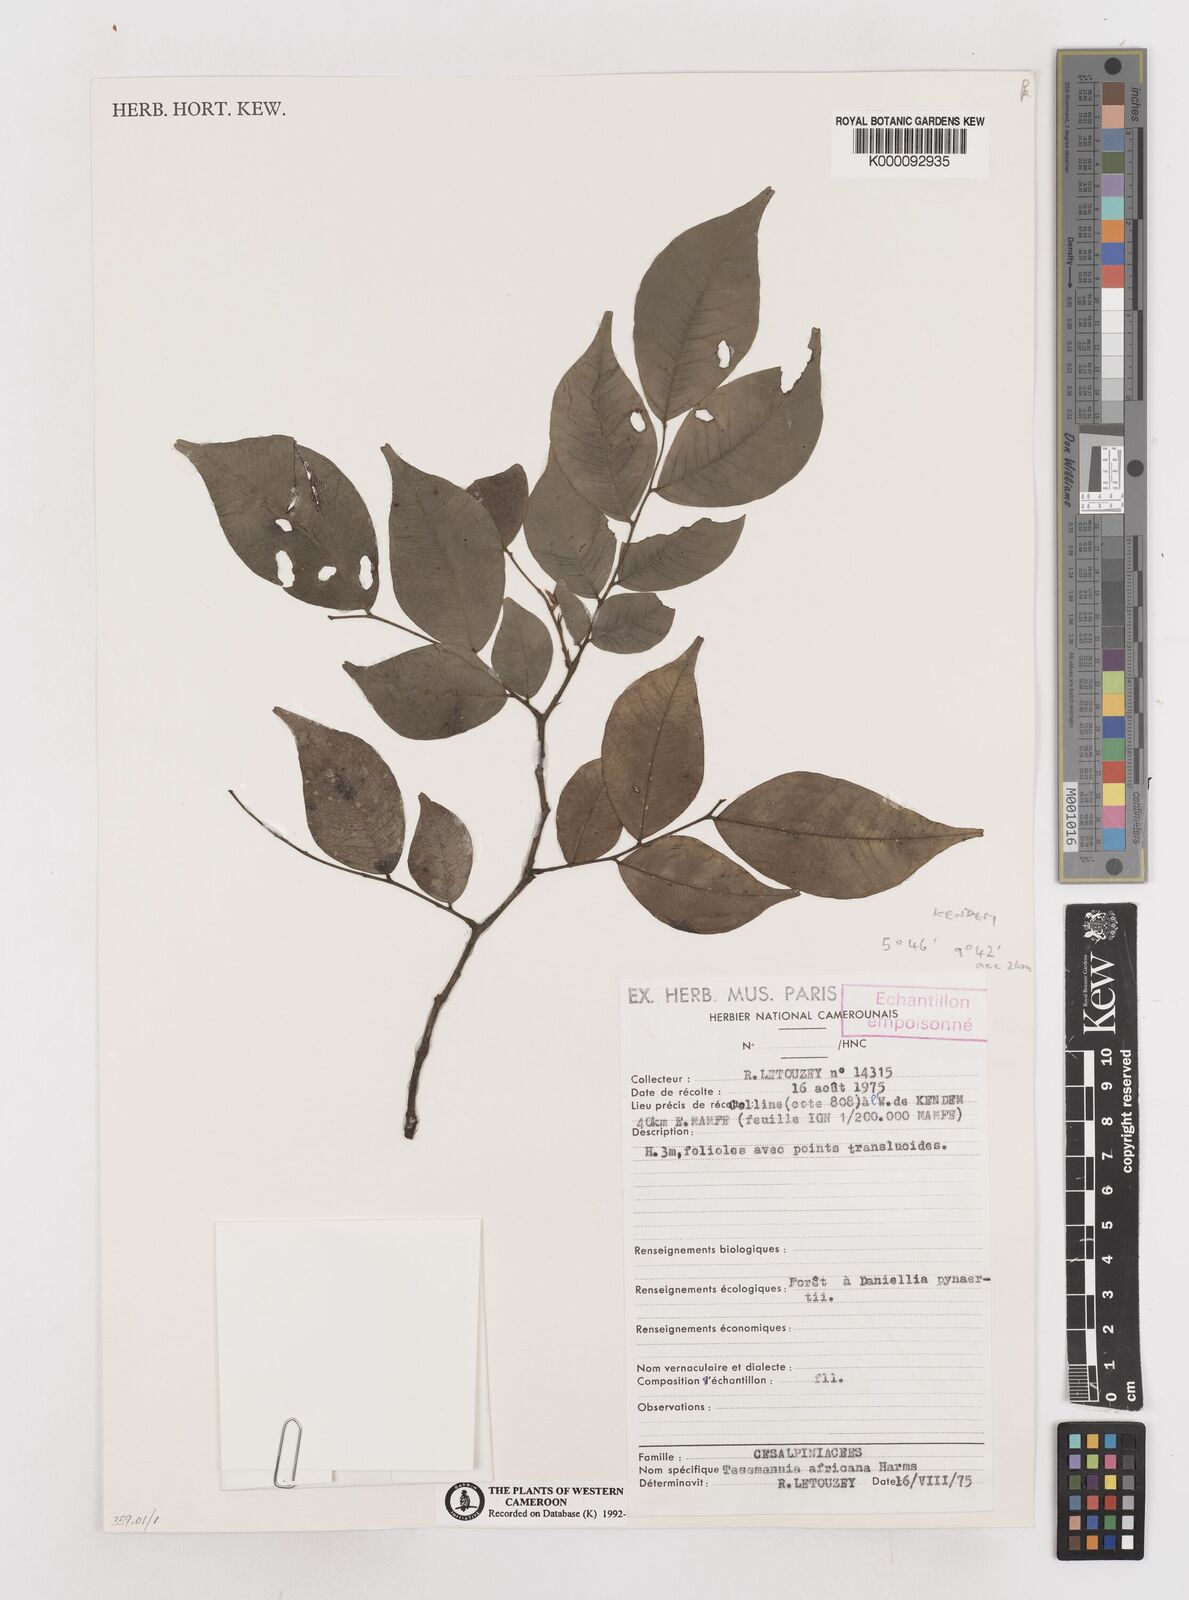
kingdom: Plantae
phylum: Tracheophyta
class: Magnoliopsida
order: Fabales
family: Fabaceae
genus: Tessmannia
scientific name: Tessmannia africana
